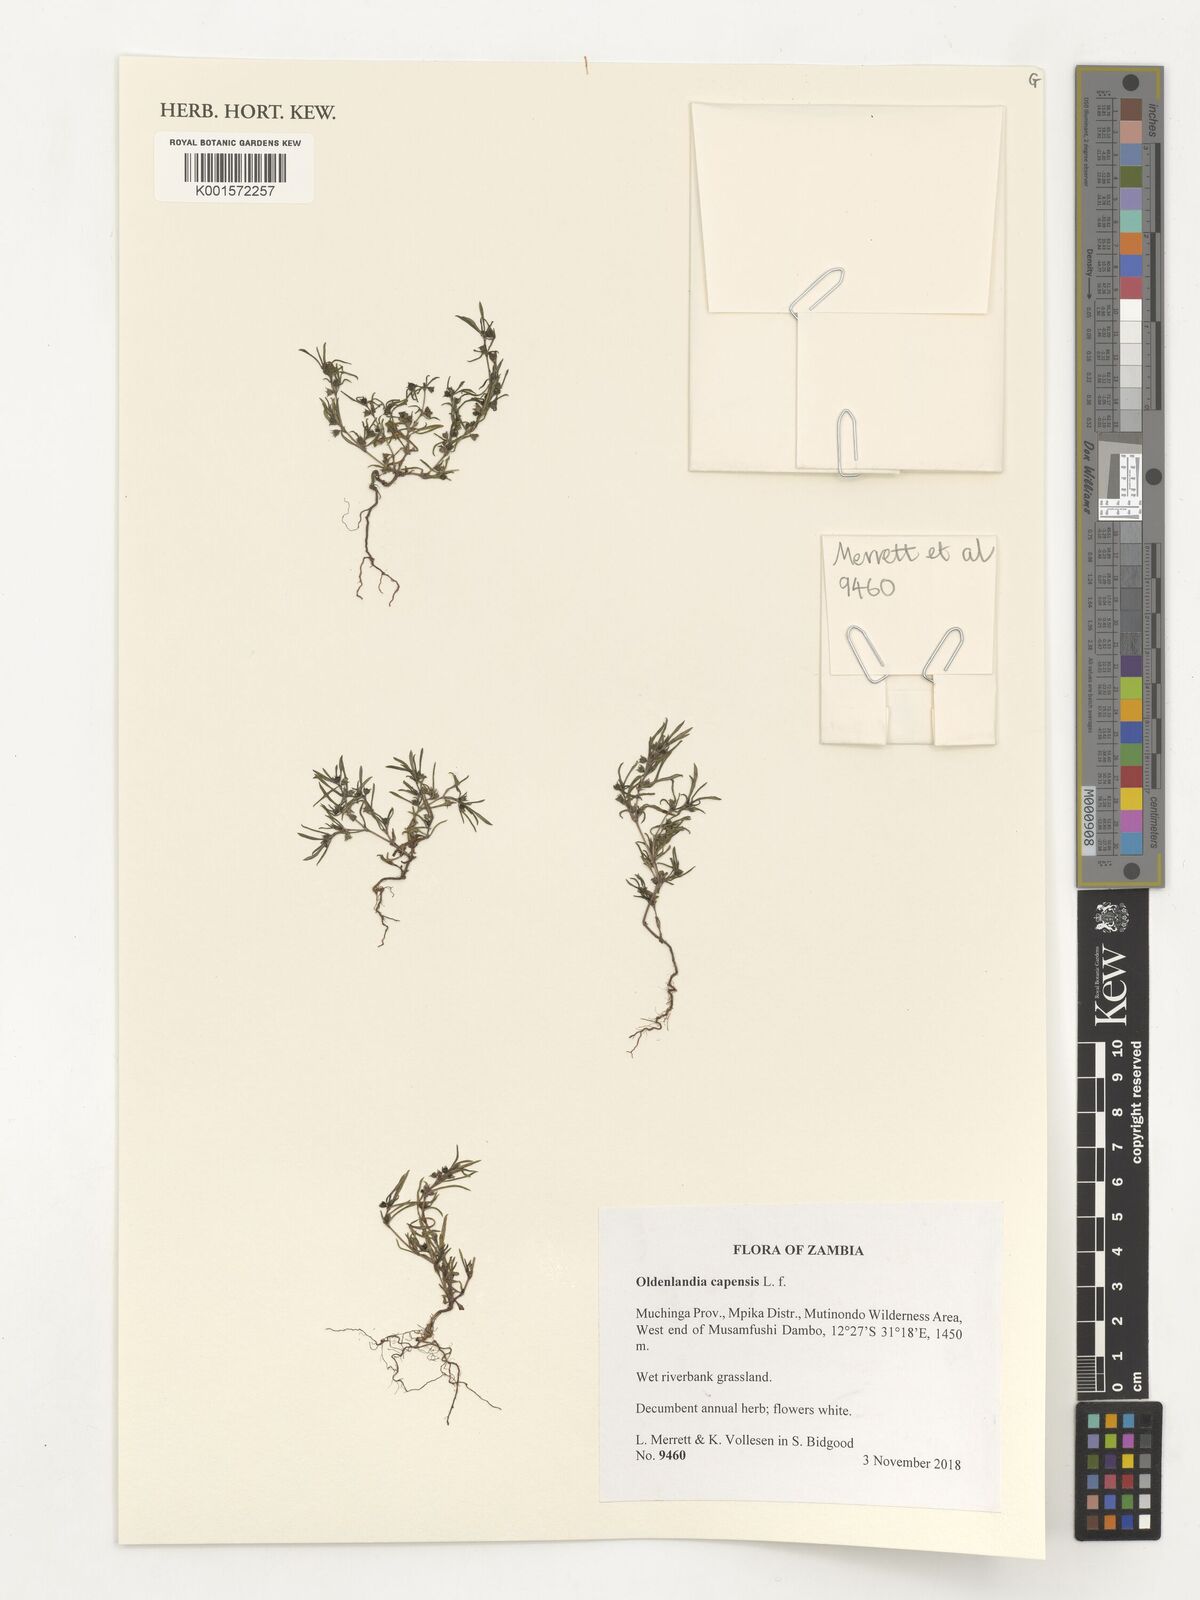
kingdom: Plantae
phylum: Tracheophyta
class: Magnoliopsida
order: Gentianales
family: Rubiaceae
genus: Oldenlandia
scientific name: Oldenlandia capensis
